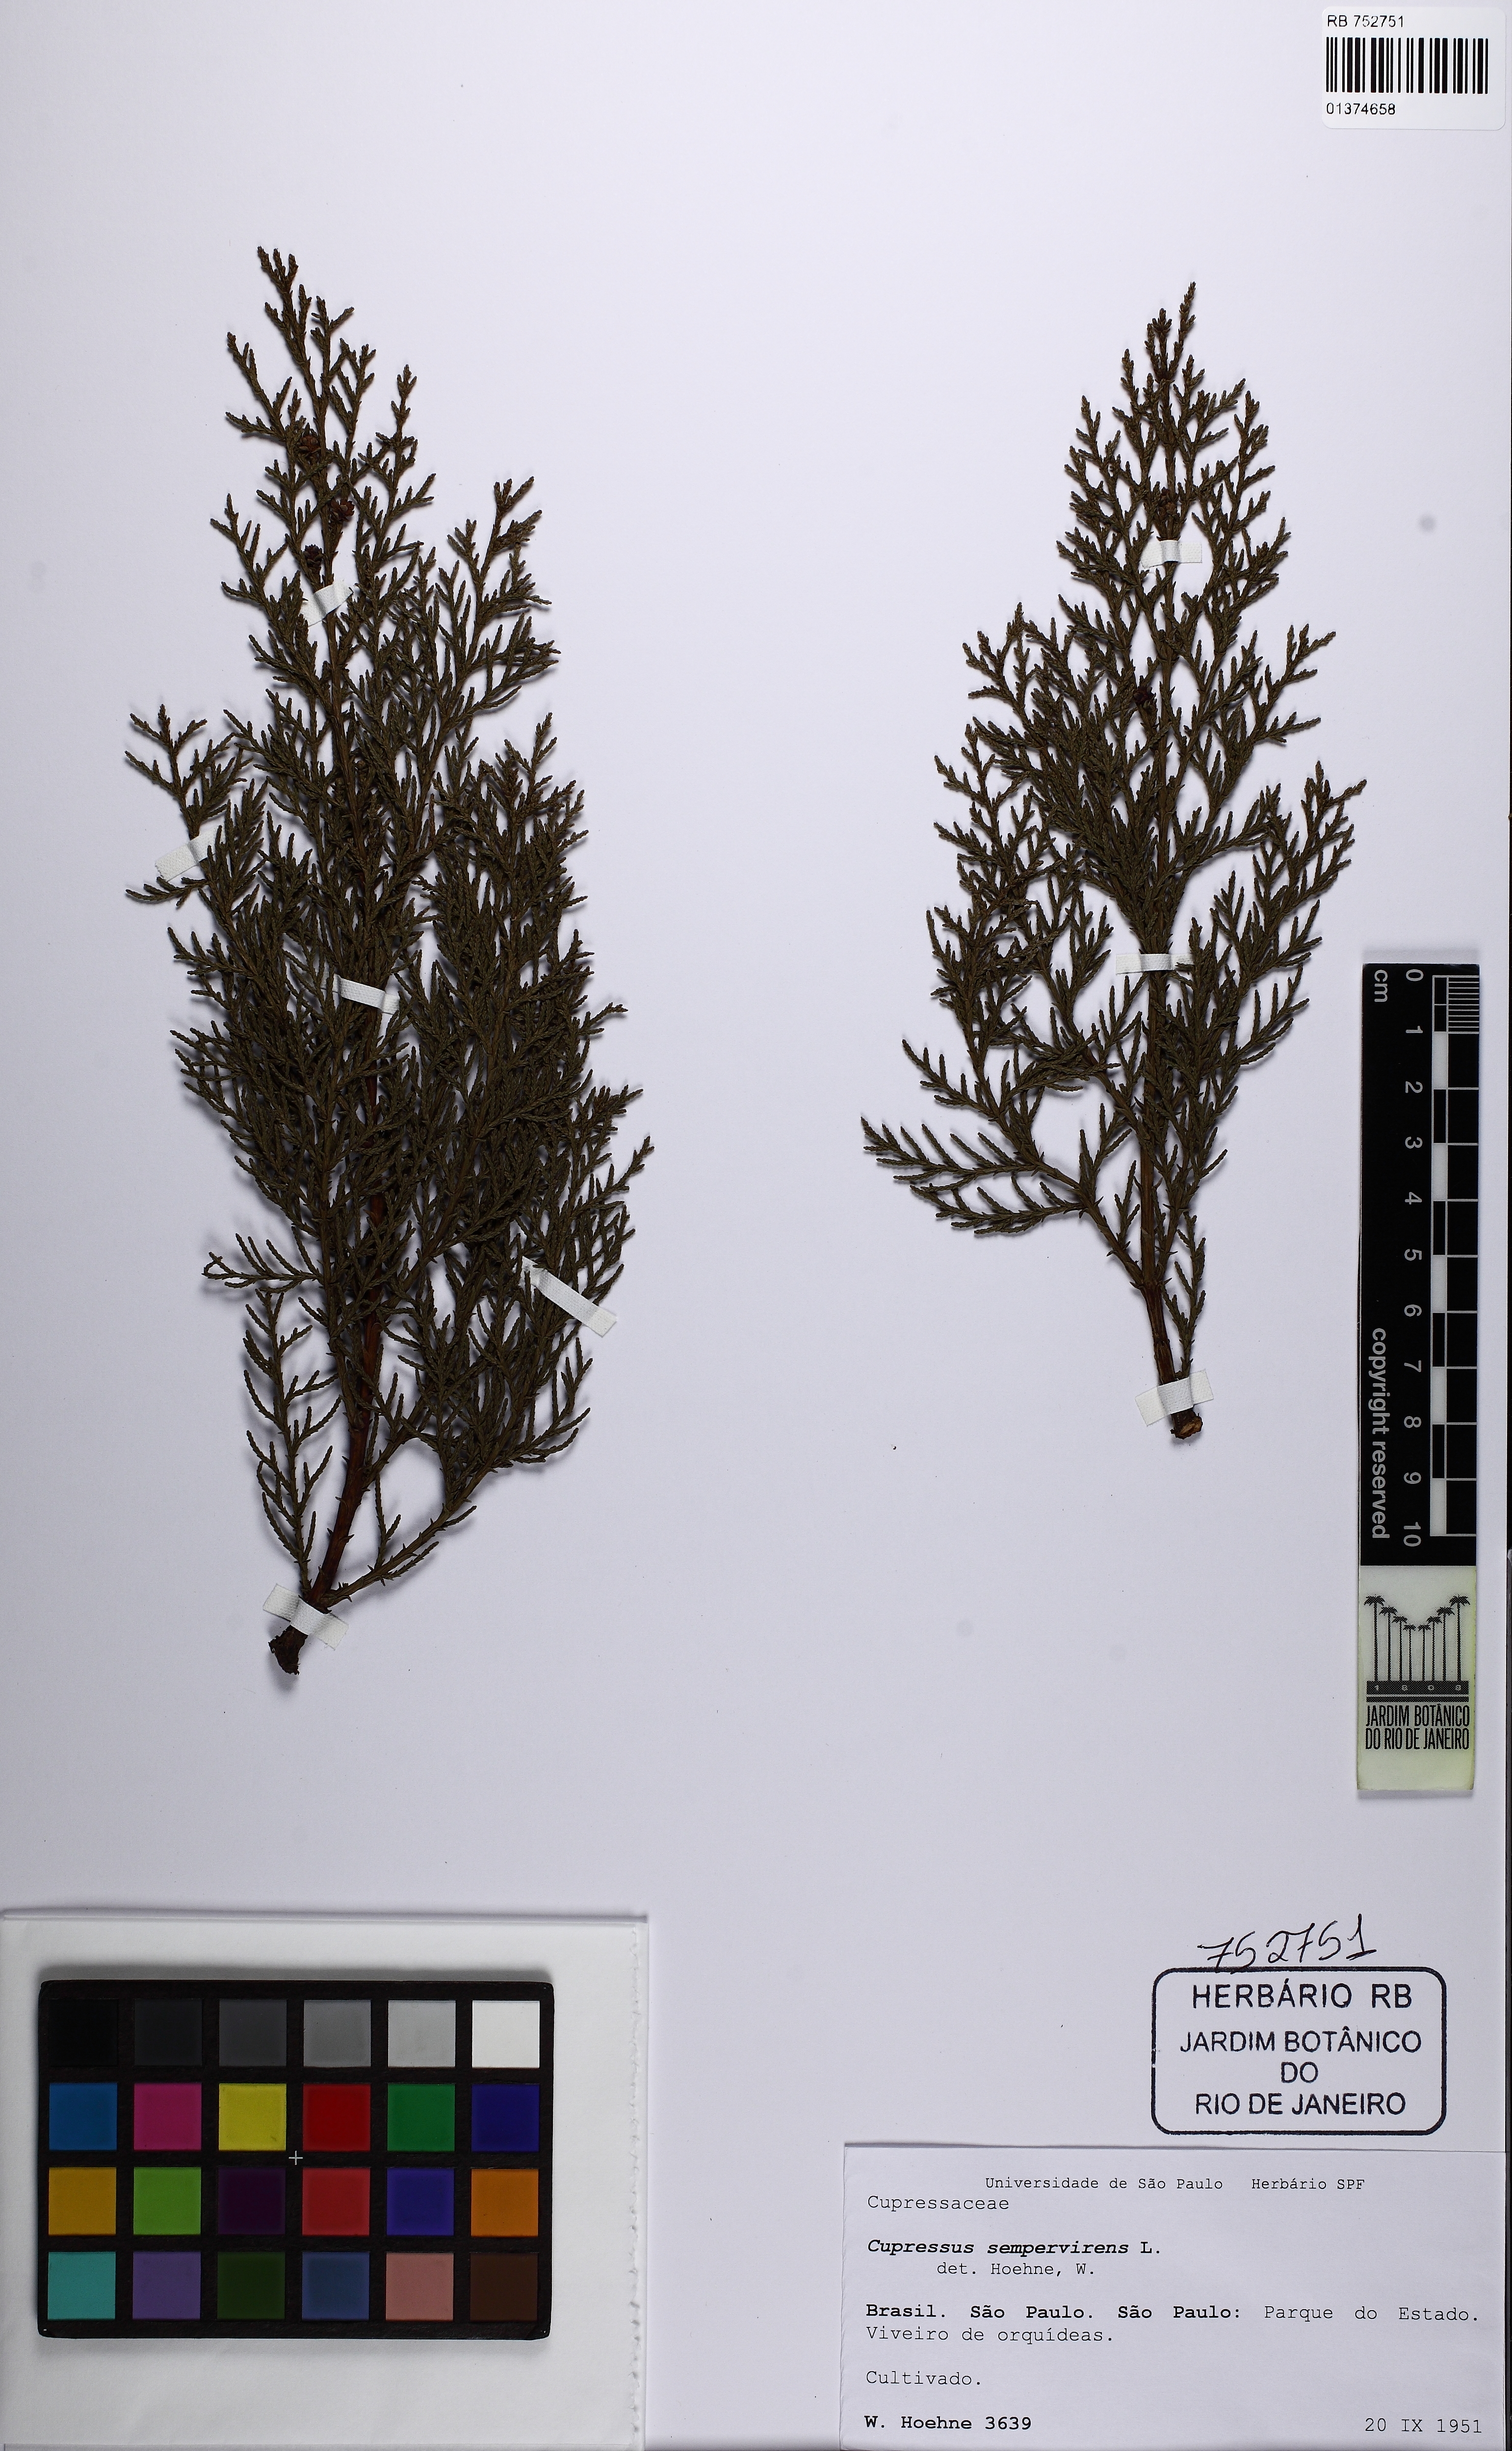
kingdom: Plantae
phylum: Tracheophyta
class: Pinopsida
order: Pinales
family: Cupressaceae
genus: Cupressus
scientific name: Cupressus sempervirens
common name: Italian cypress
